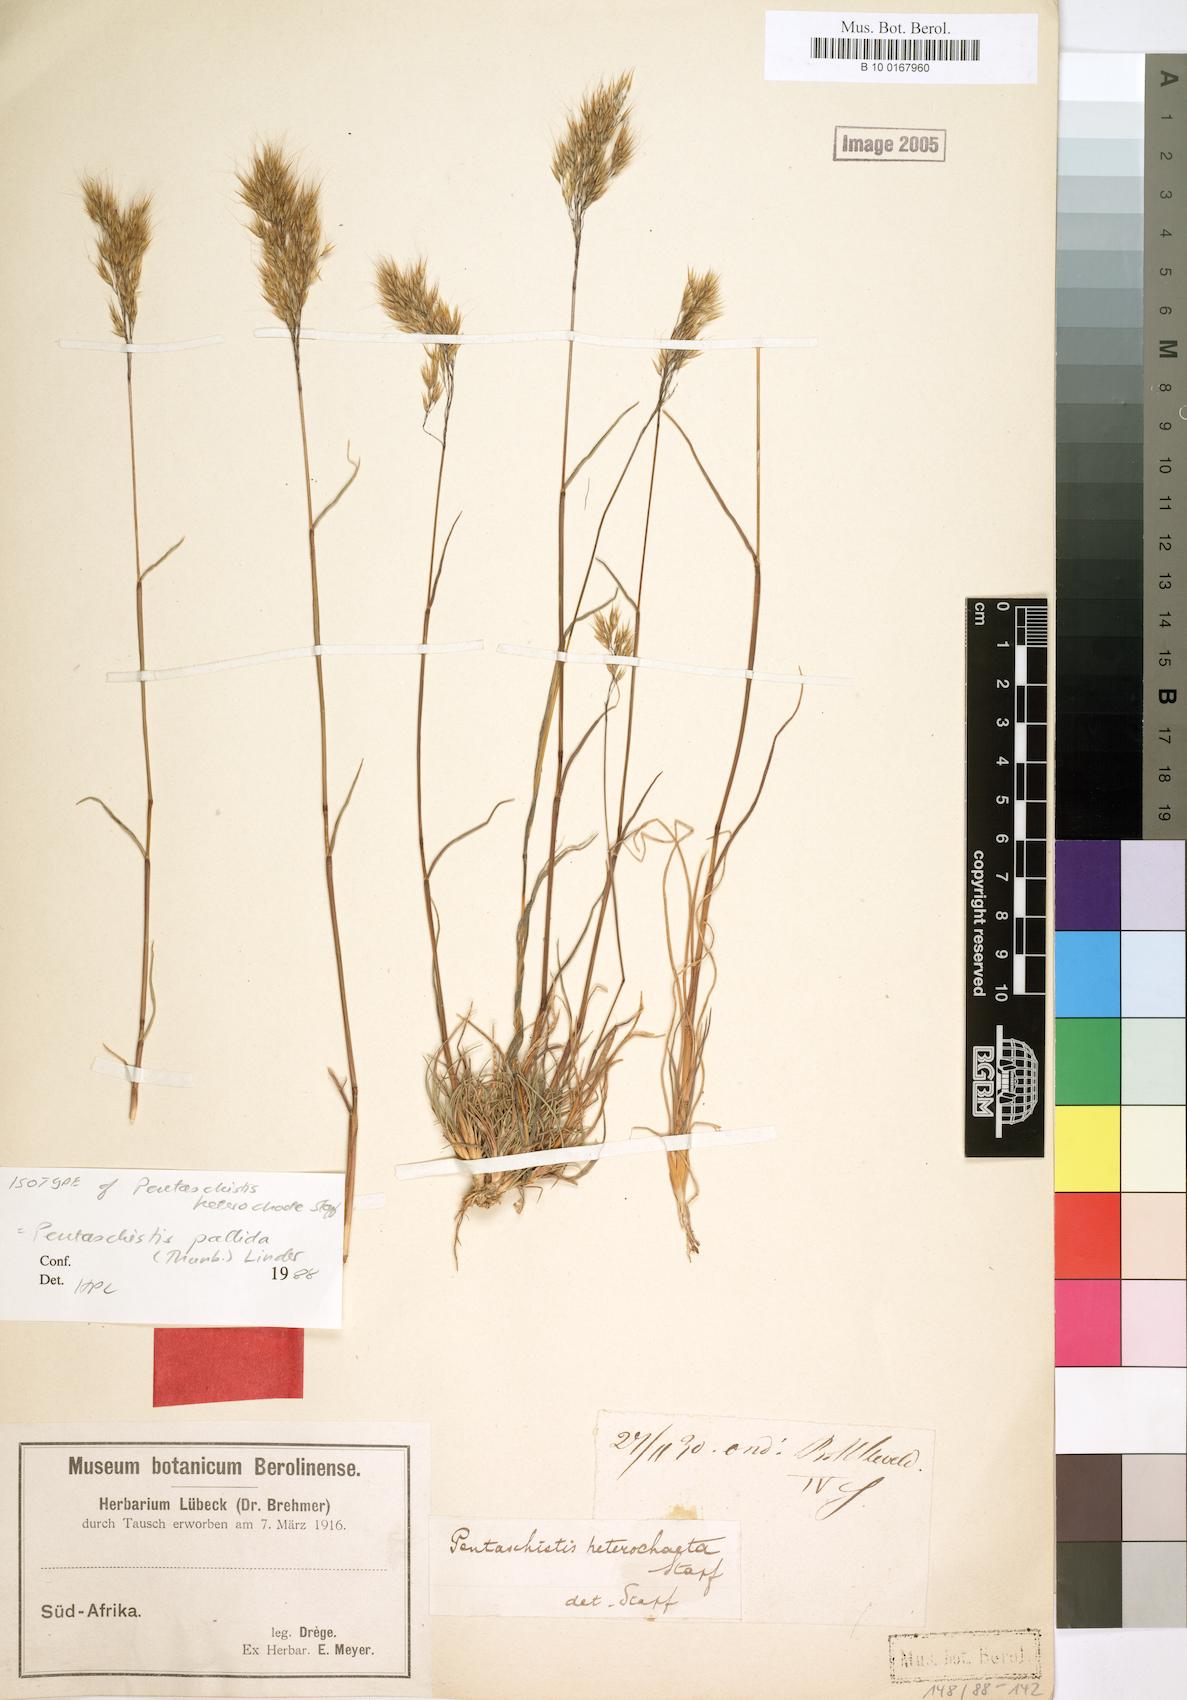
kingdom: Plantae
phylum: Tracheophyta
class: Liliopsida
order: Poales
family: Poaceae
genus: Pentameris
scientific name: Pentameris pallida
